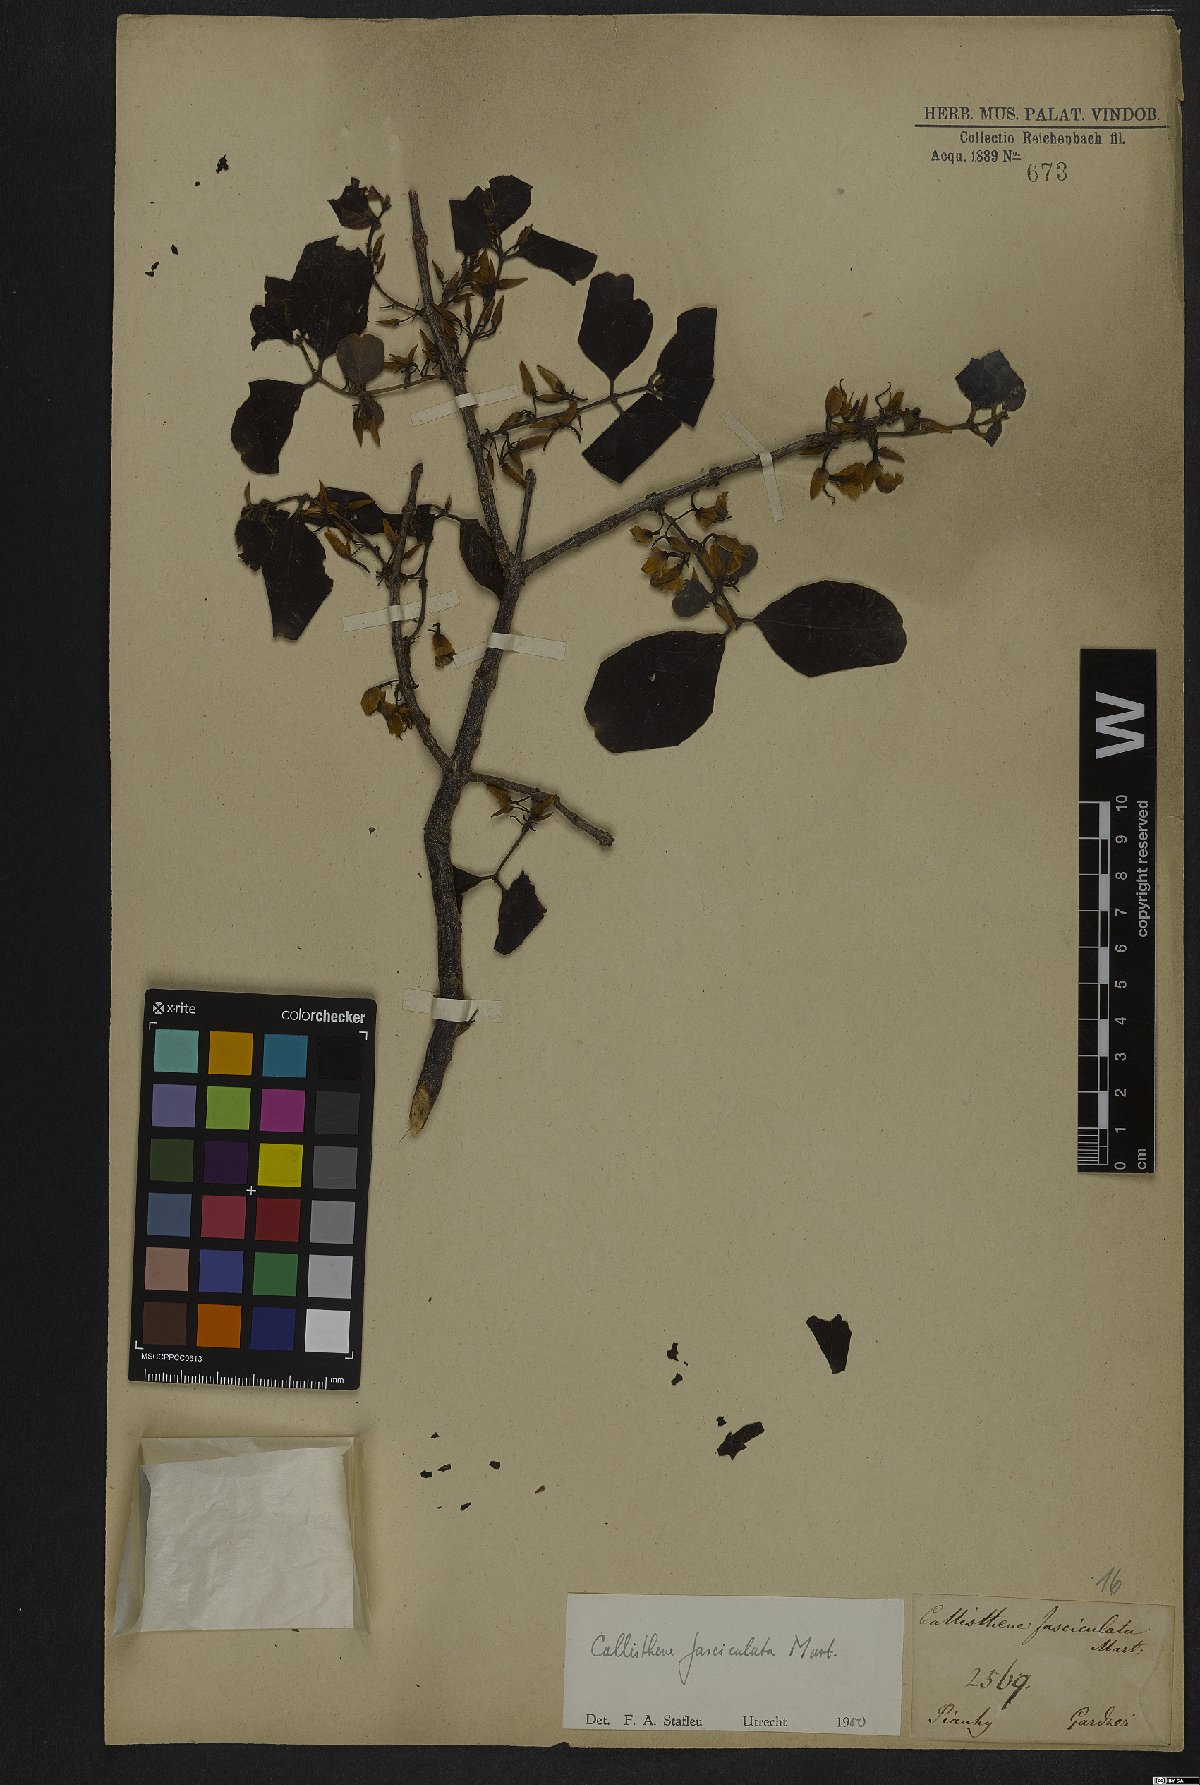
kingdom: Plantae
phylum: Tracheophyta
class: Magnoliopsida
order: Myrtales
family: Vochysiaceae
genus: Callisthene
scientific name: Callisthene fasciculata
